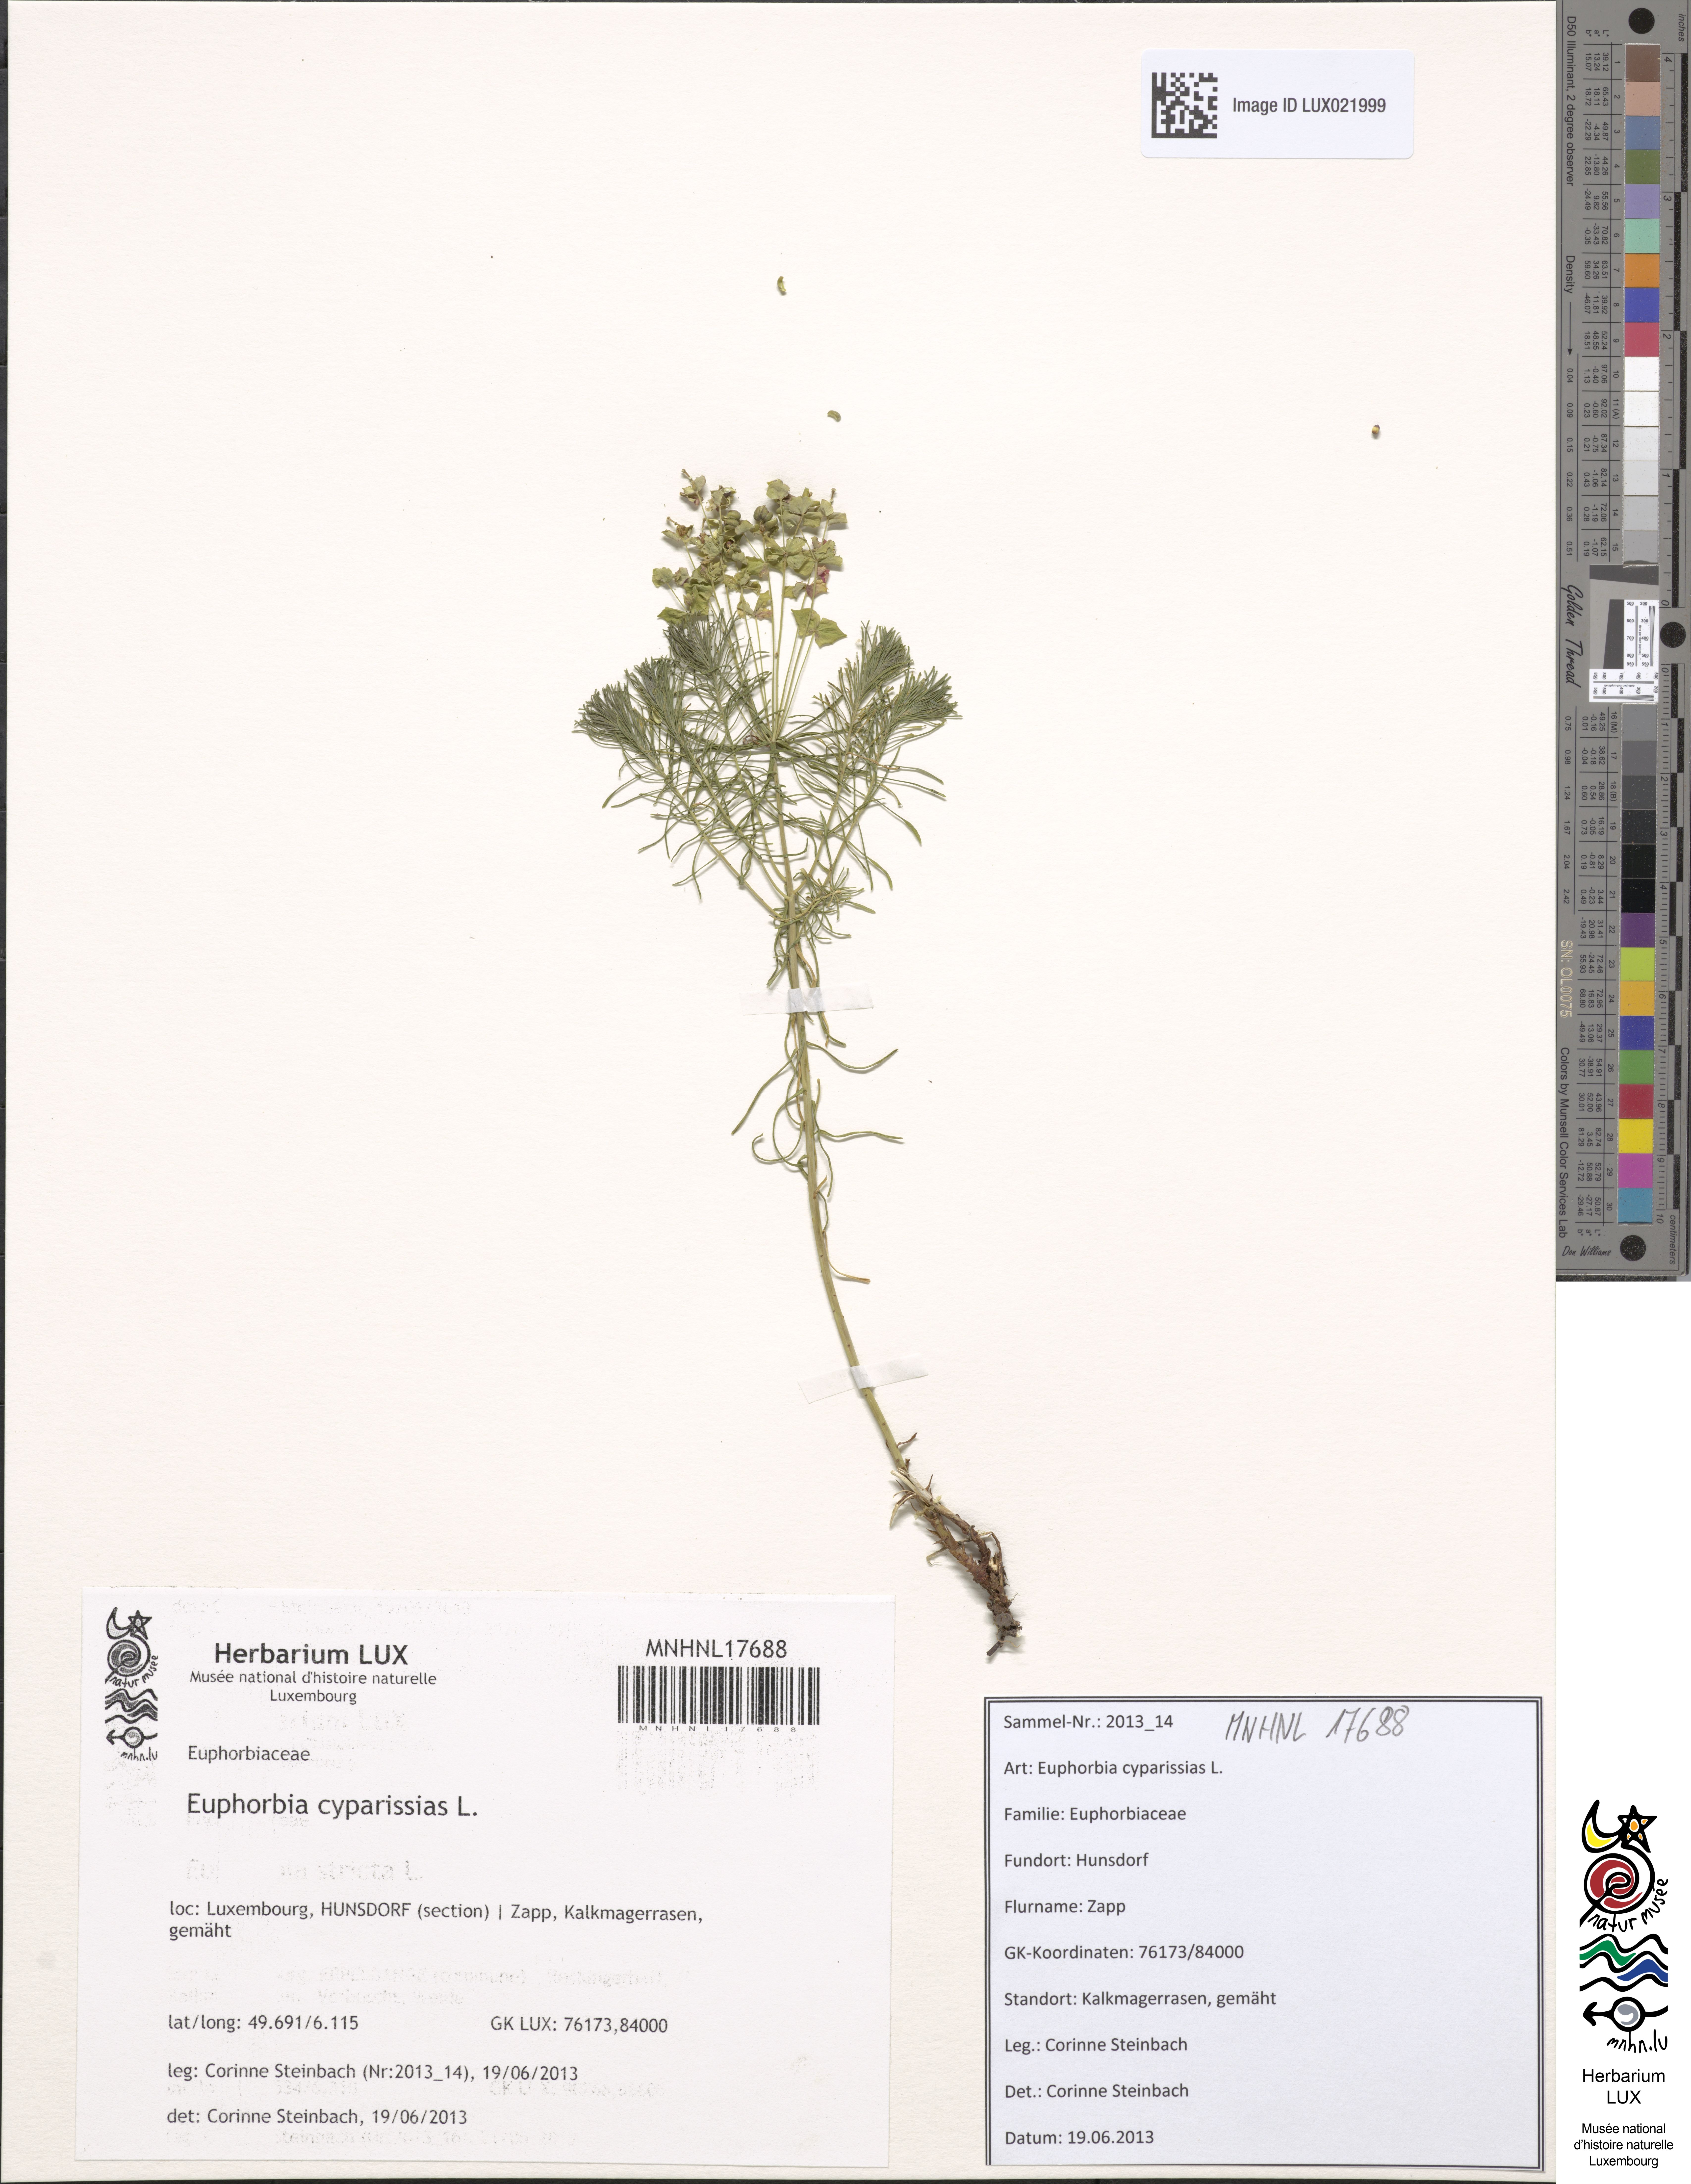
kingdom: Plantae
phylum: Tracheophyta
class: Magnoliopsida
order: Malpighiales
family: Euphorbiaceae
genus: Euphorbia
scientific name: Euphorbia cyparissias
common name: Cypress spurge
